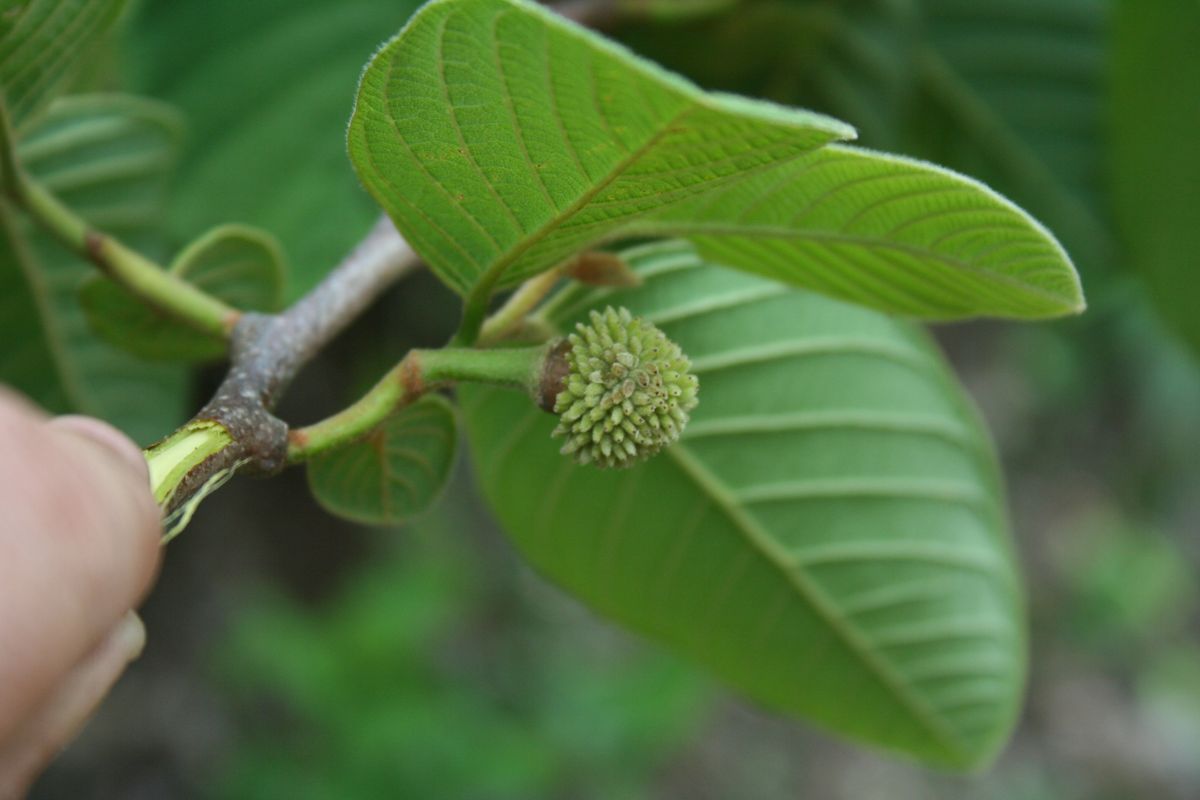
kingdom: Plantae
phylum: Tracheophyta
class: Magnoliopsida
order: Magnoliales
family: Annonaceae
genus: Annona
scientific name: Annona holosericea
